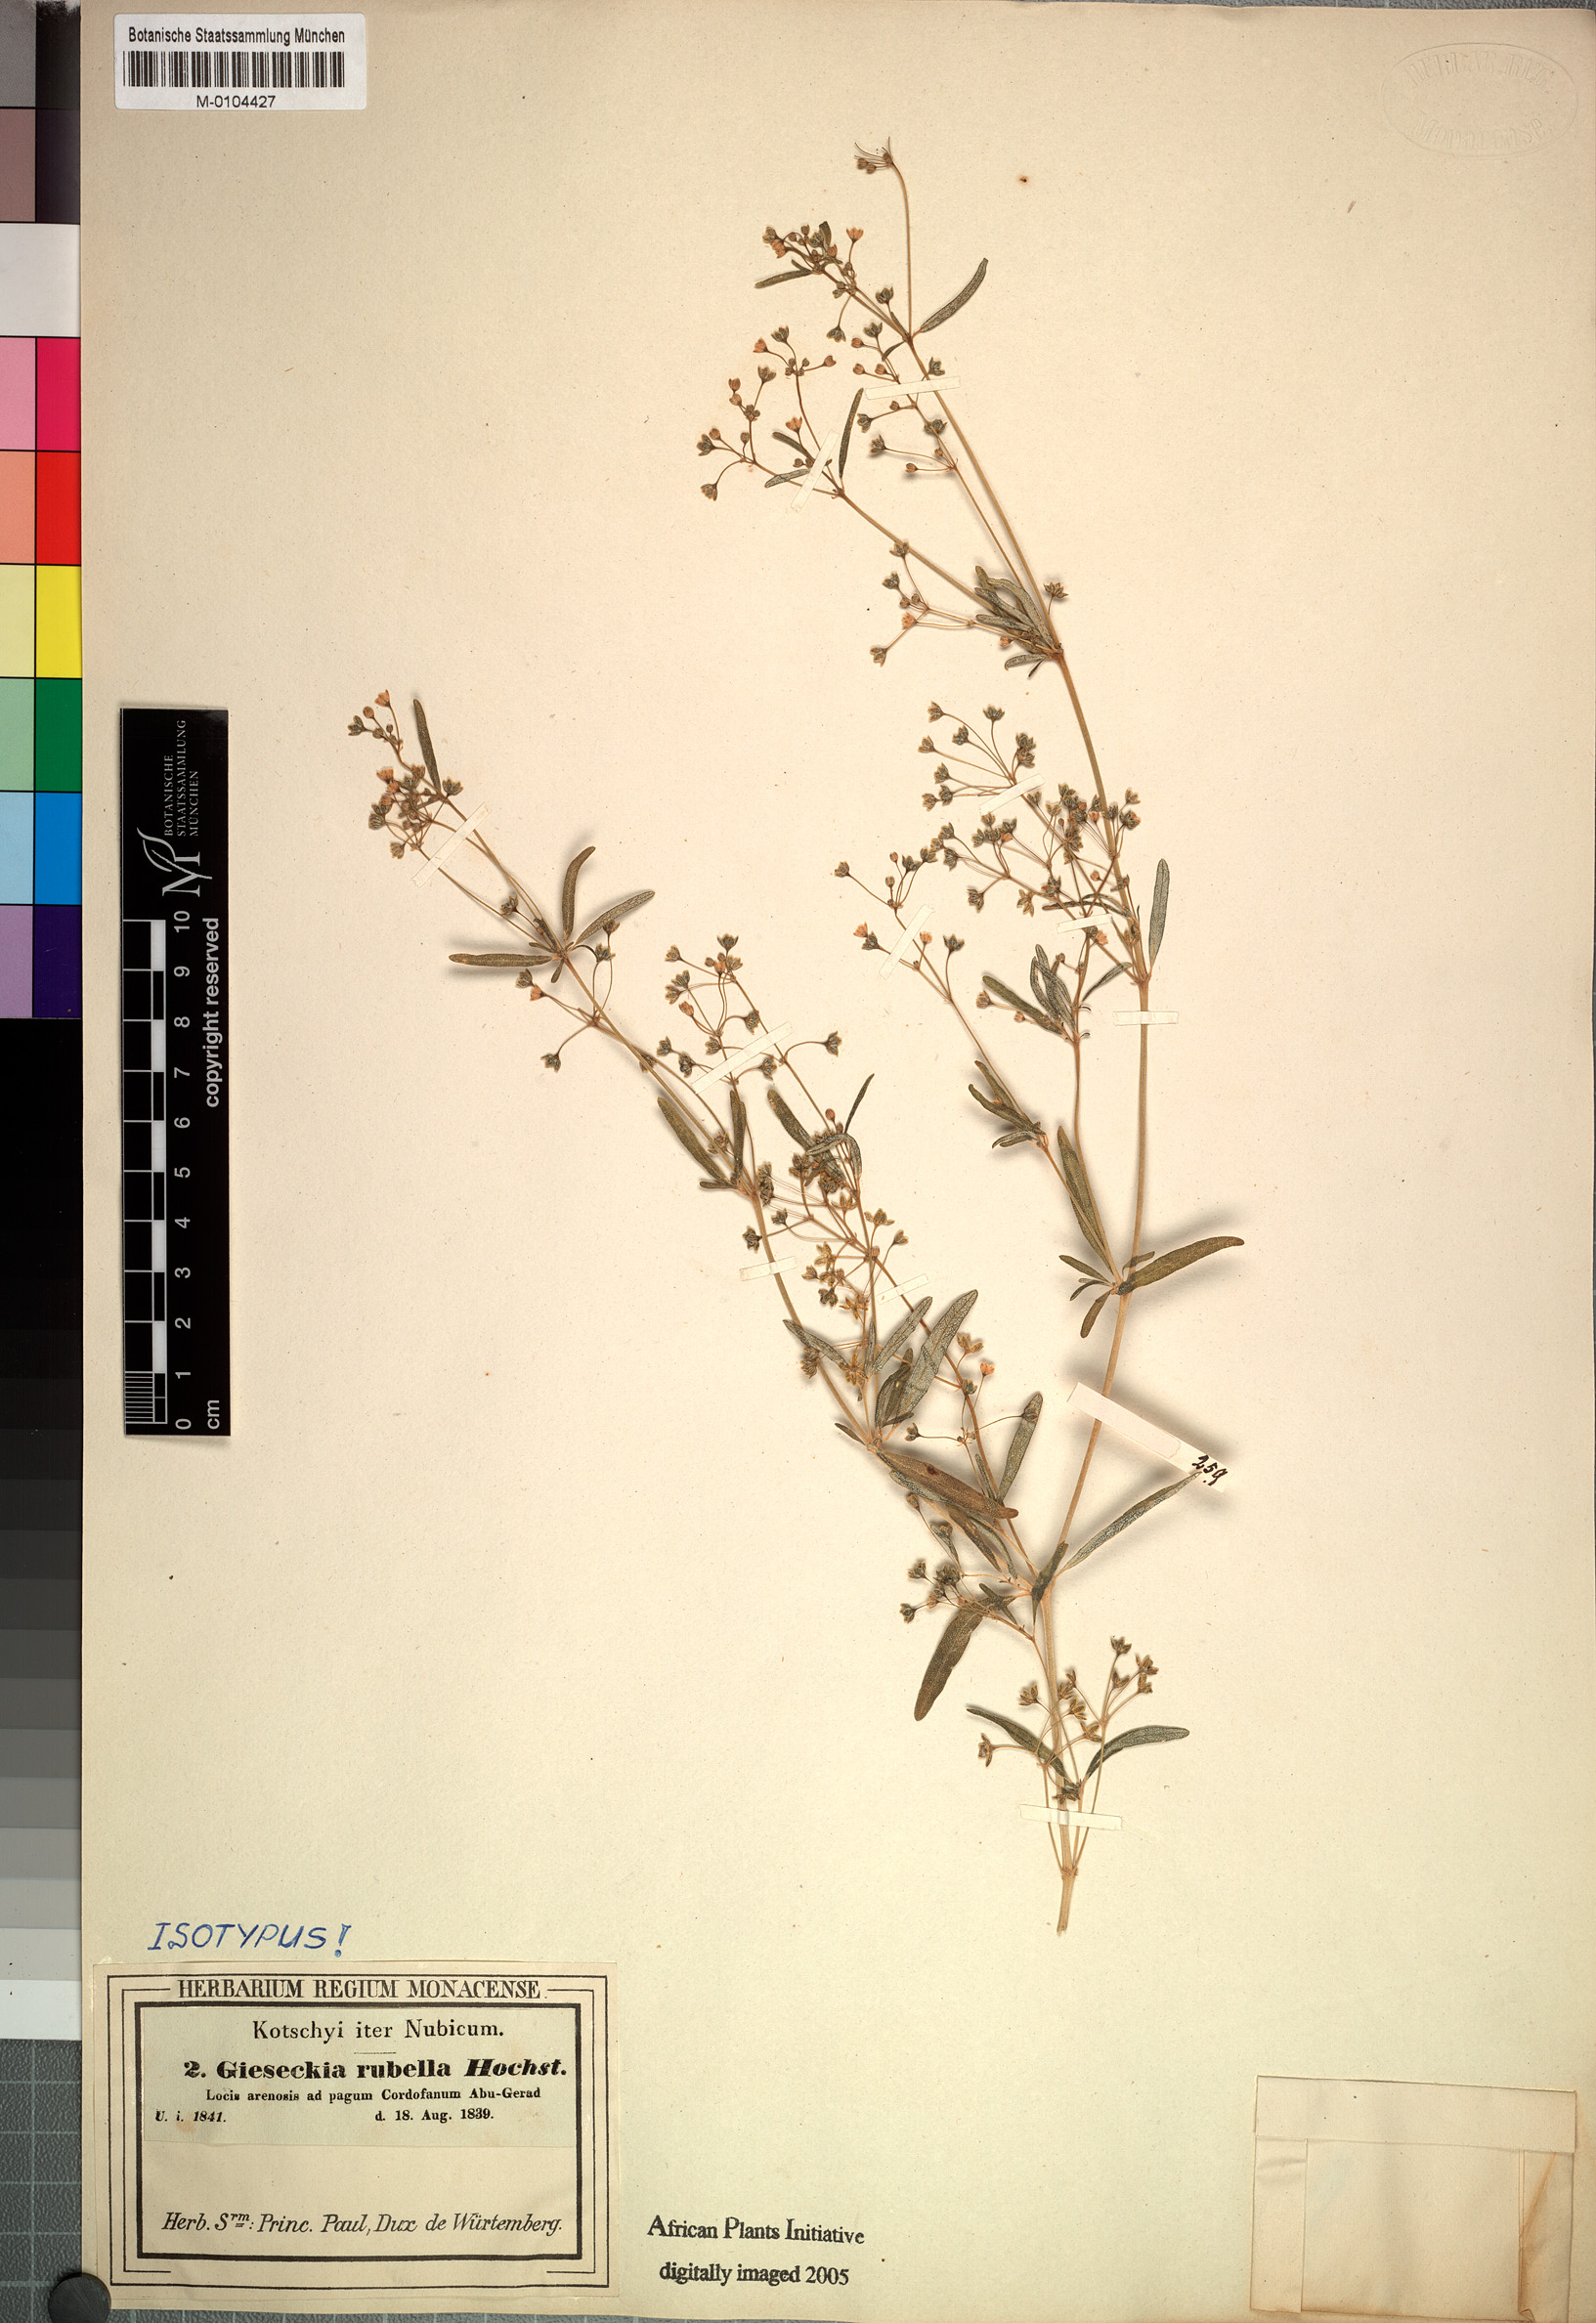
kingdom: Plantae
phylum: Tracheophyta
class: Magnoliopsida
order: Caryophyllales
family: Gisekiaceae
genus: Gisekia
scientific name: Gisekia pharnaceoides
